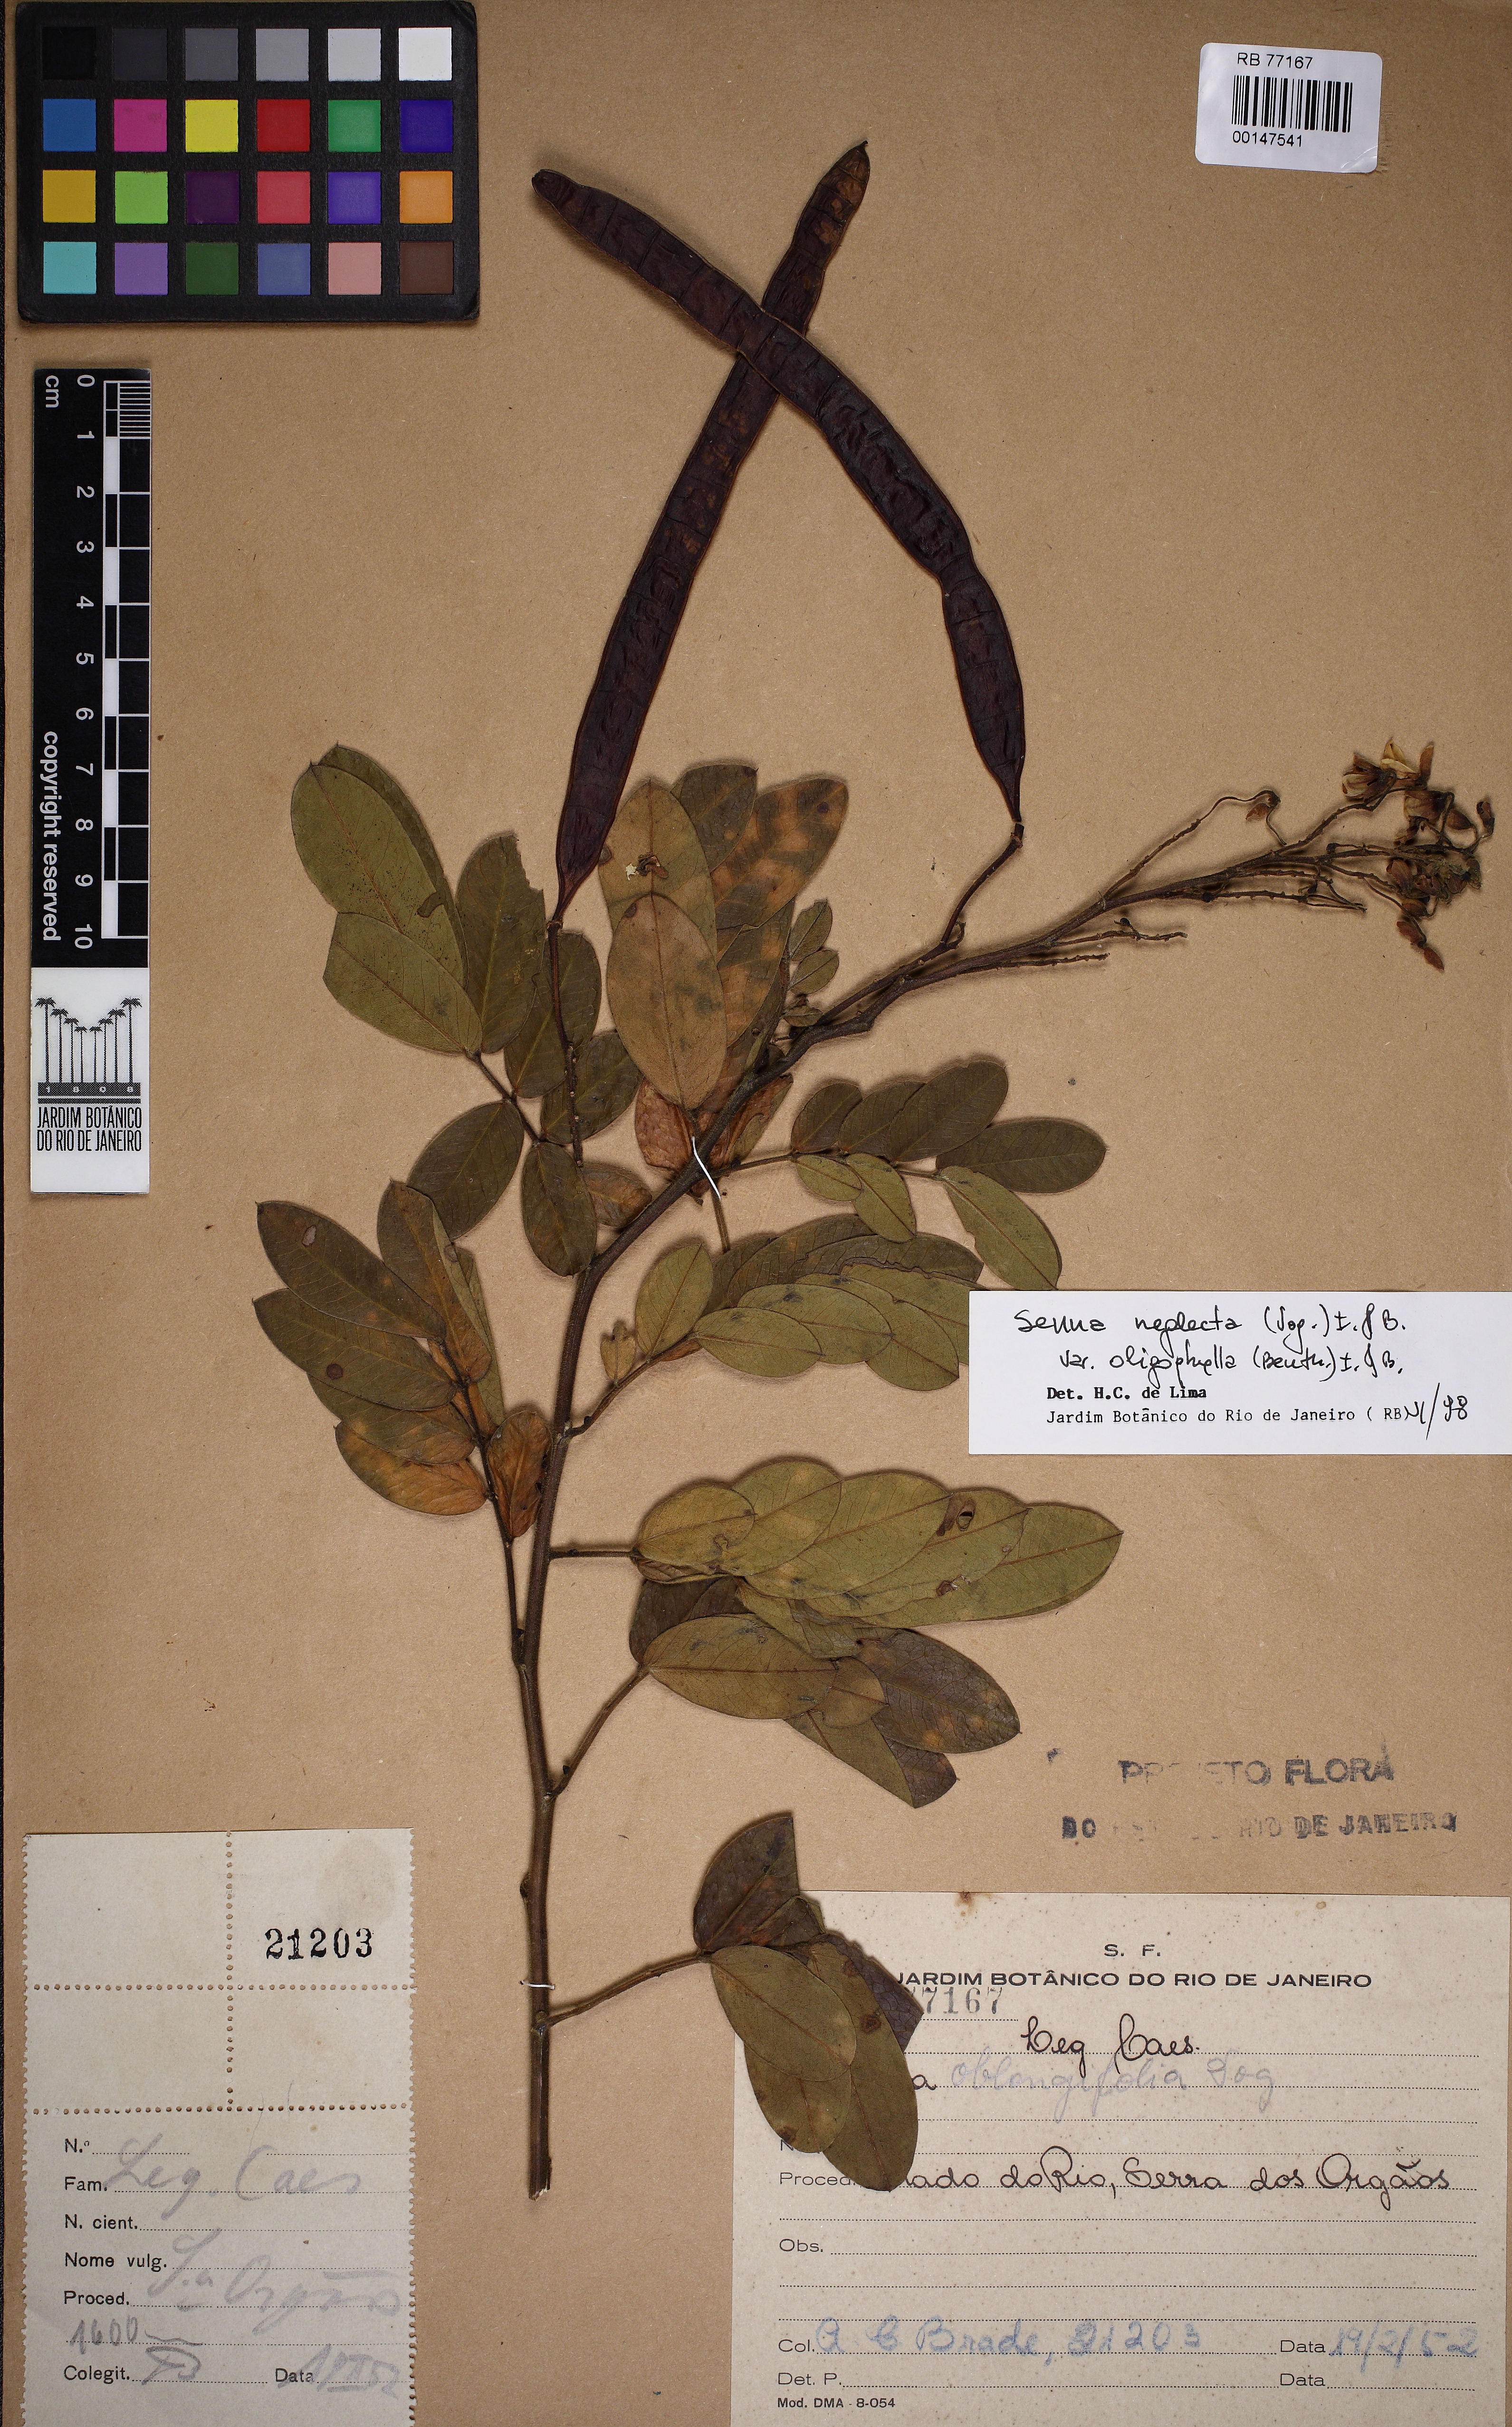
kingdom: Plantae
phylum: Tracheophyta
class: Magnoliopsida
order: Fabales
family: Fabaceae
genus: Senna
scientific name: Senna neglecta
